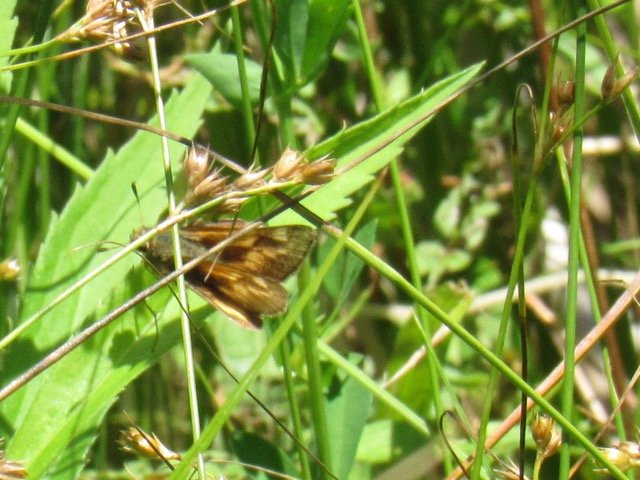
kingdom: Animalia
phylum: Arthropoda
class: Insecta
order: Lepidoptera
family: Hesperiidae
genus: Polites
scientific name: Polites
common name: Long Dash Skipper
